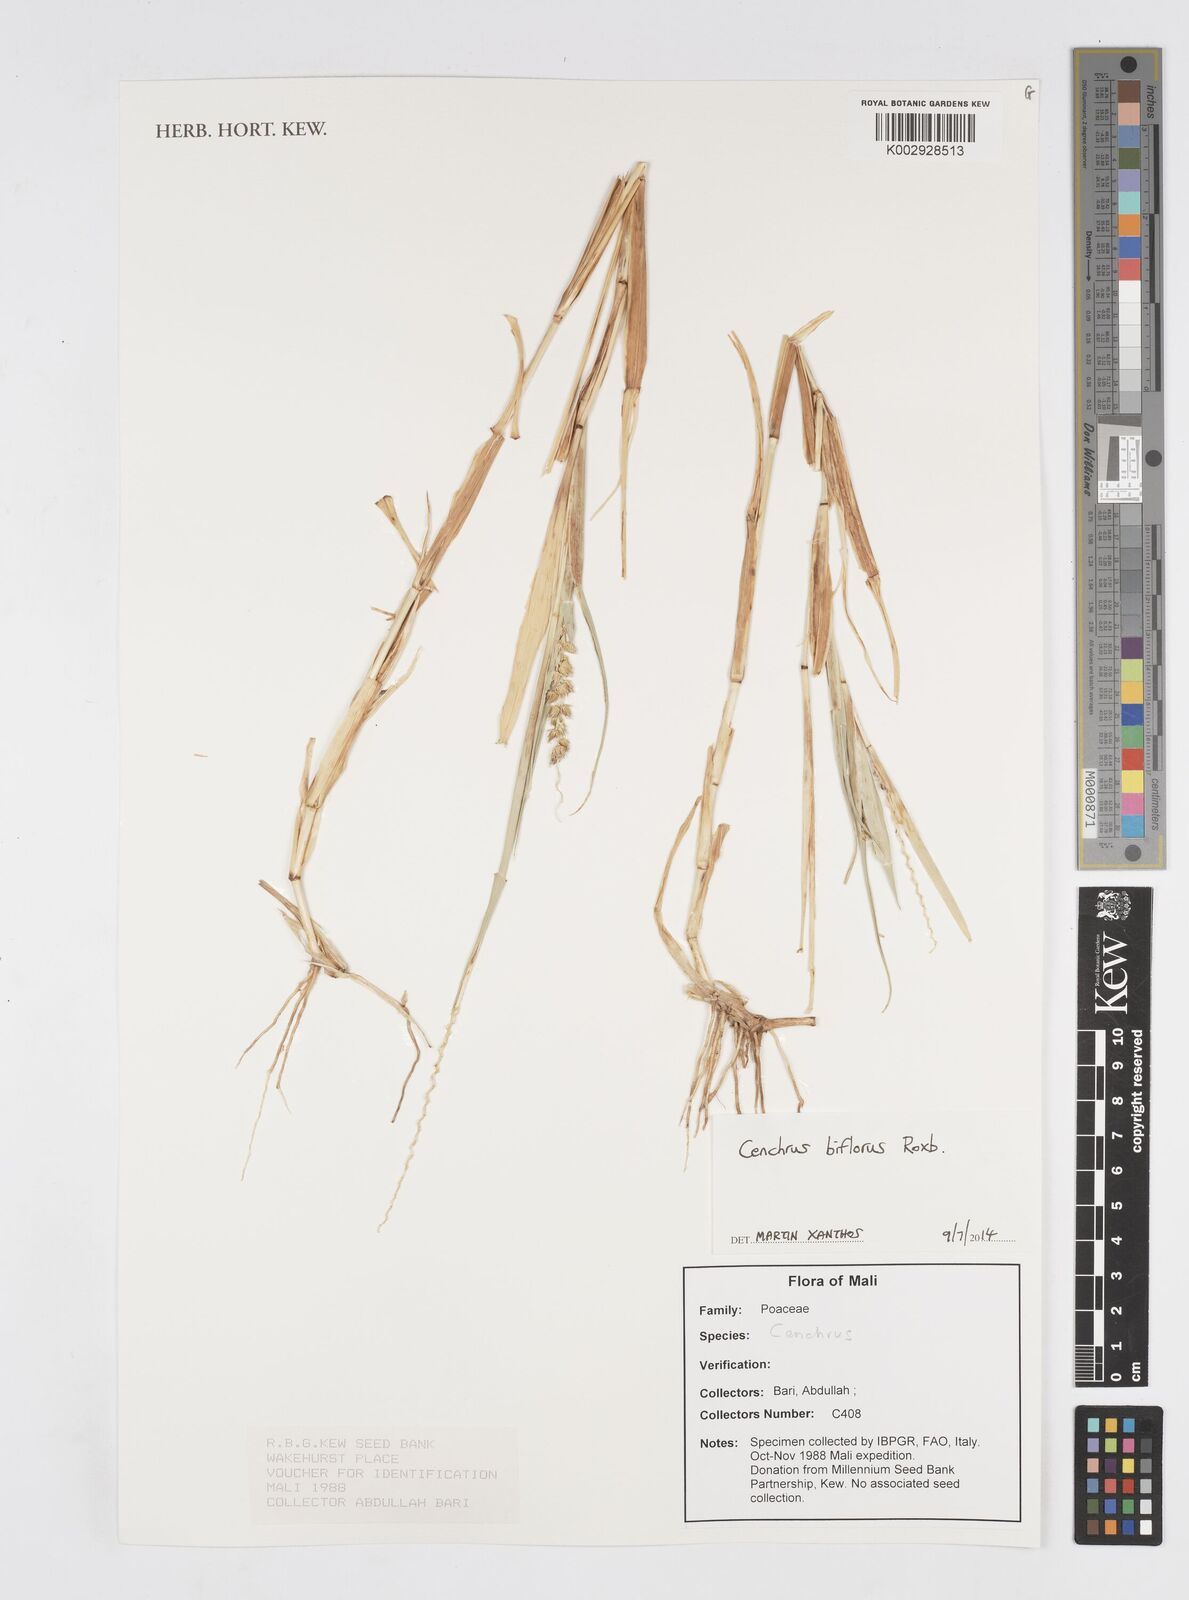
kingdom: Plantae
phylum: Tracheophyta
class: Liliopsida
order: Poales
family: Poaceae
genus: Cenchrus
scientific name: Cenchrus biflorus
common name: Indian sandbur
